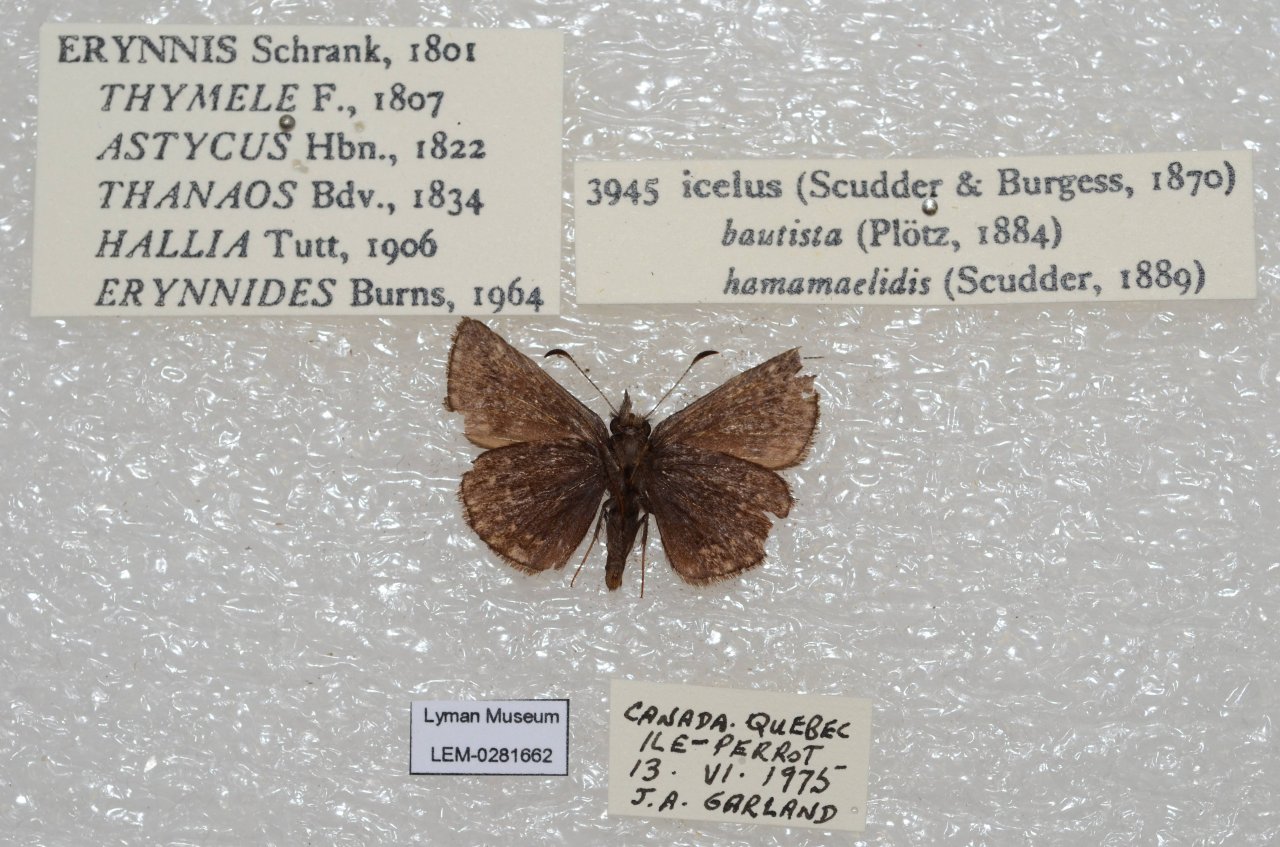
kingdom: Animalia
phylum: Arthropoda
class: Insecta
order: Lepidoptera
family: Hesperiidae
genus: Erynnis
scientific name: Erynnis icelus
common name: Dreamy Duskywing
